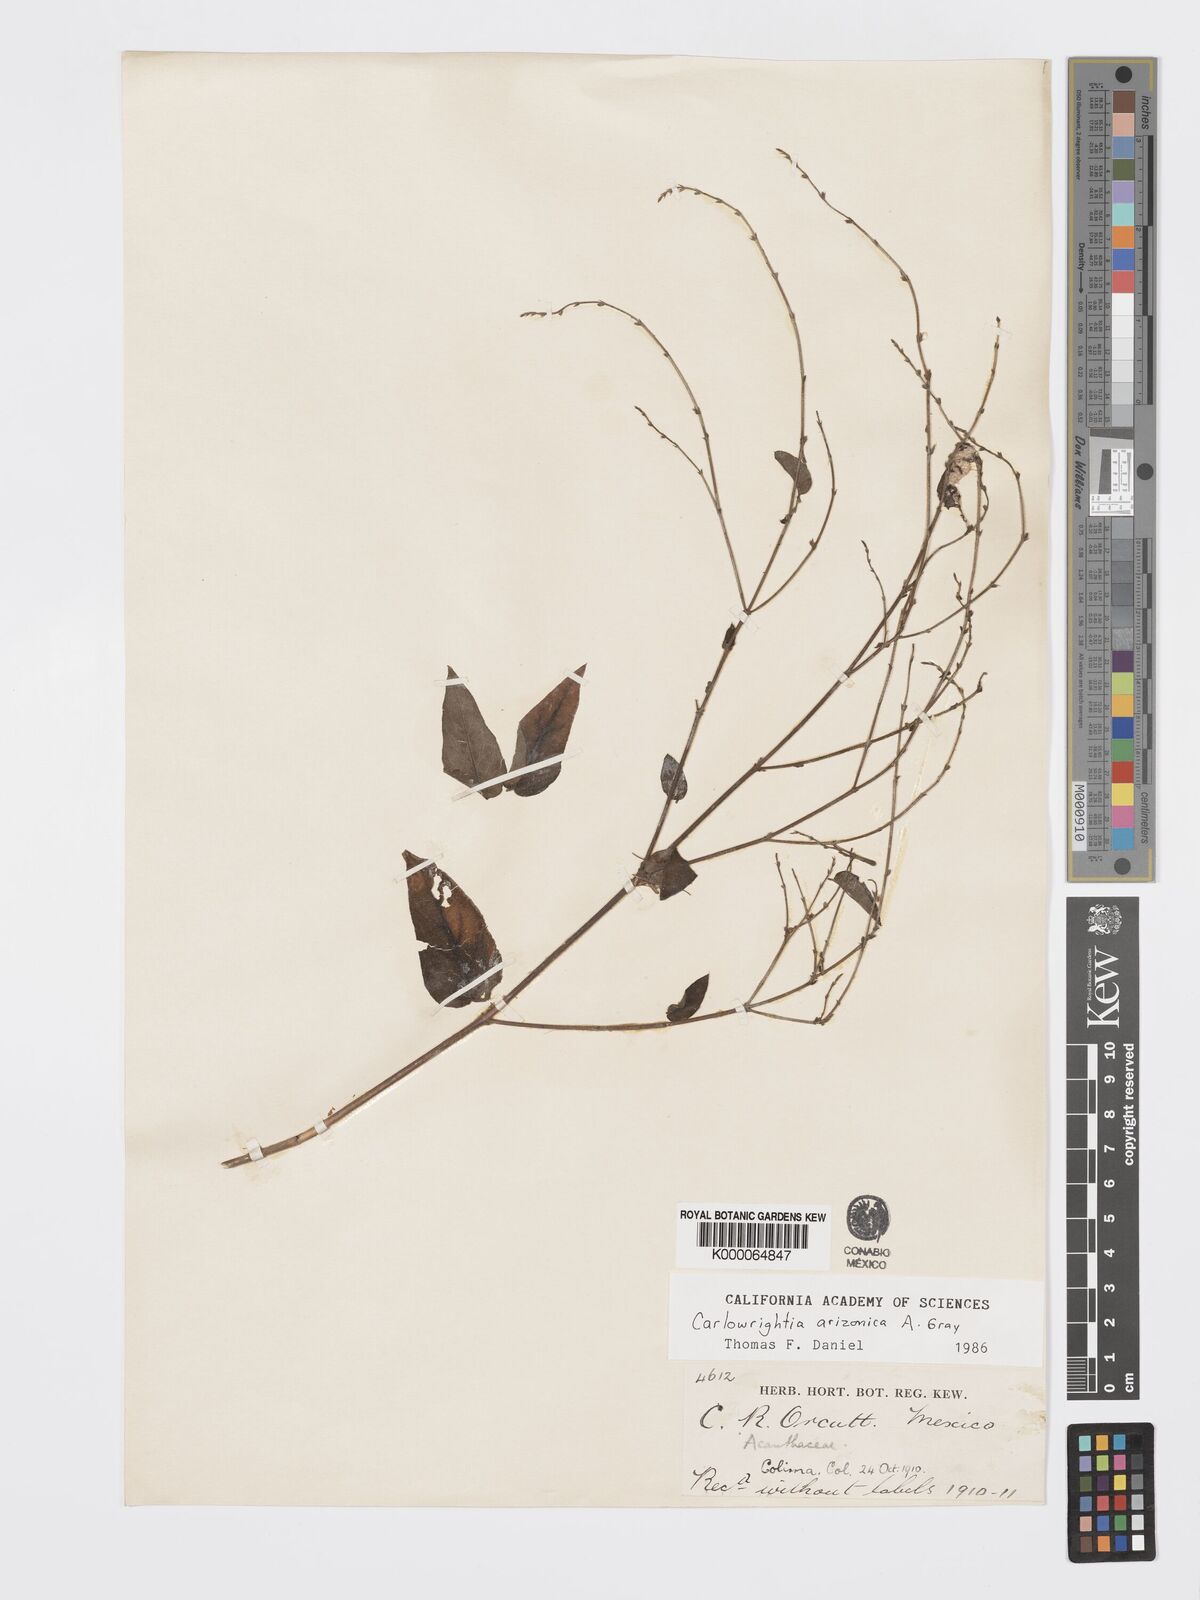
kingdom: Plantae
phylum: Tracheophyta
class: Magnoliopsida
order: Lamiales
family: Acanthaceae
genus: Carlowrightia
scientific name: Carlowrightia arizonica
